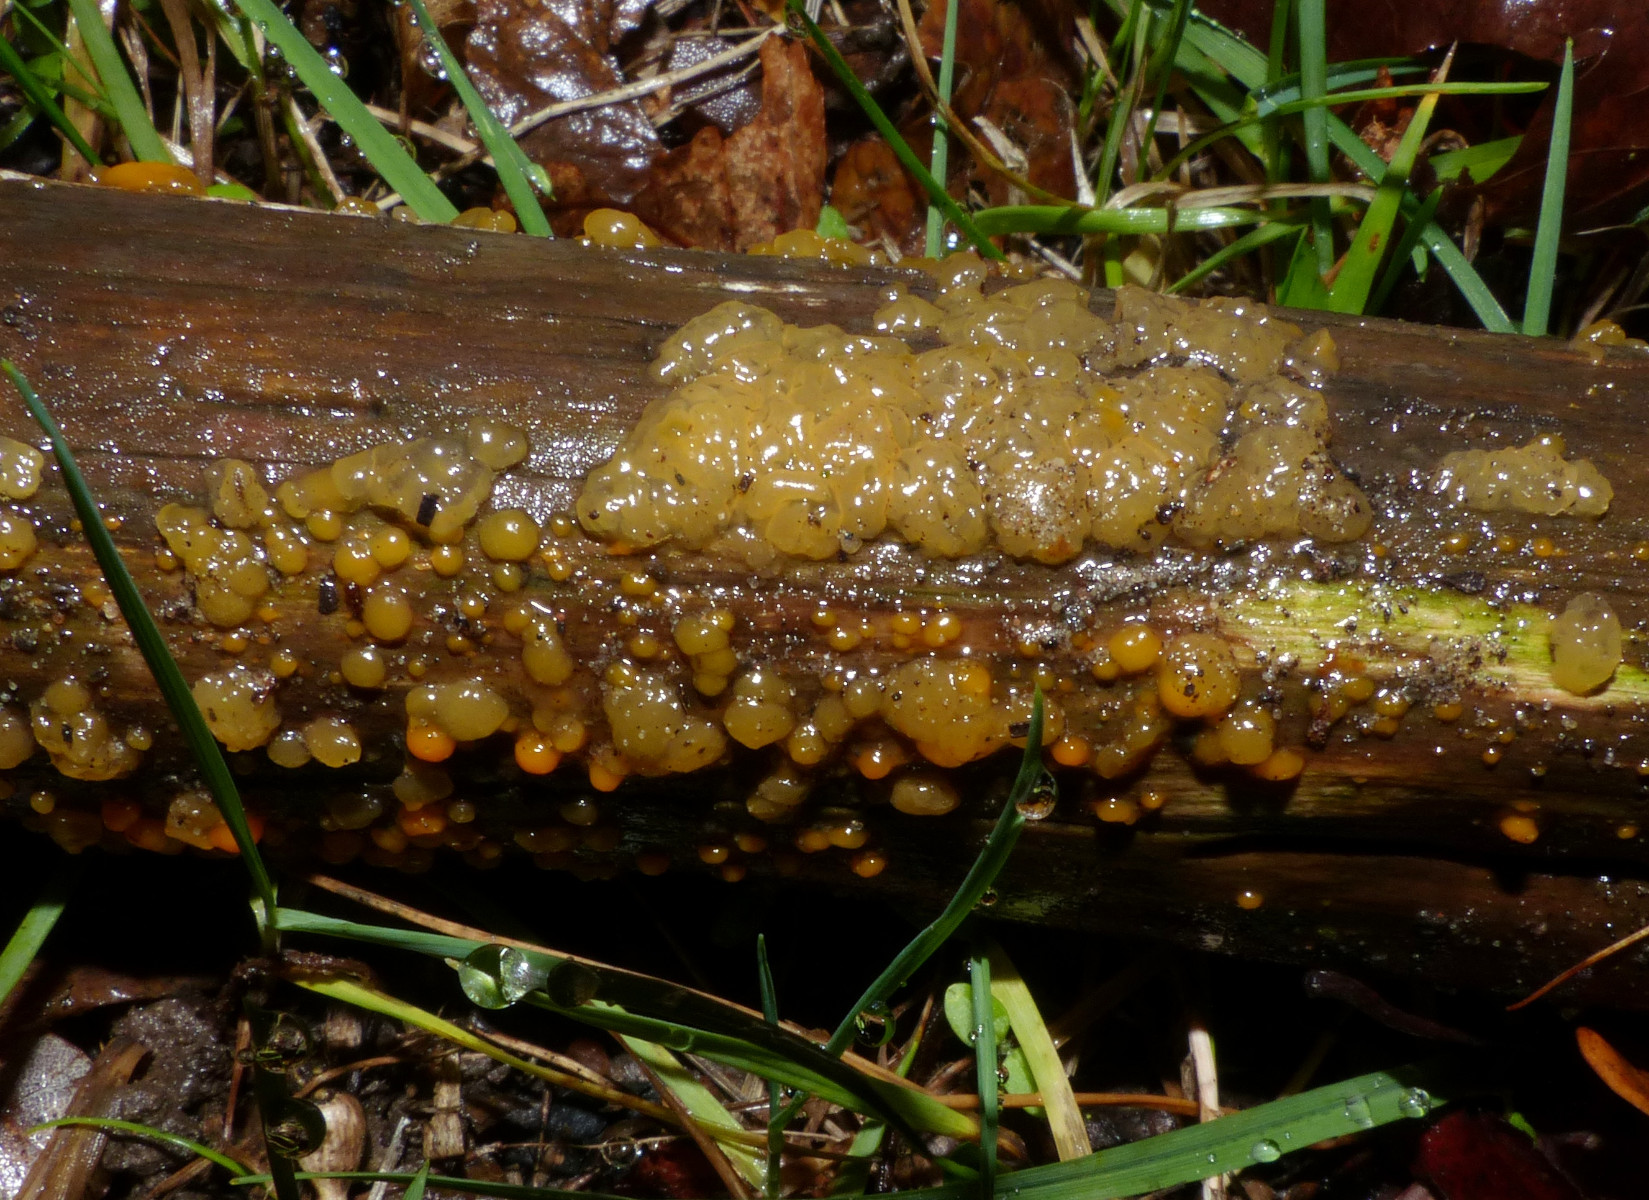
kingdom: Fungi
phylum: Basidiomycota
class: Dacrymycetes
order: Dacrymycetales
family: Dacrymycetaceae
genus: Dacrymyces
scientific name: Dacrymyces stillatus
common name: almindelig tåresvamp
